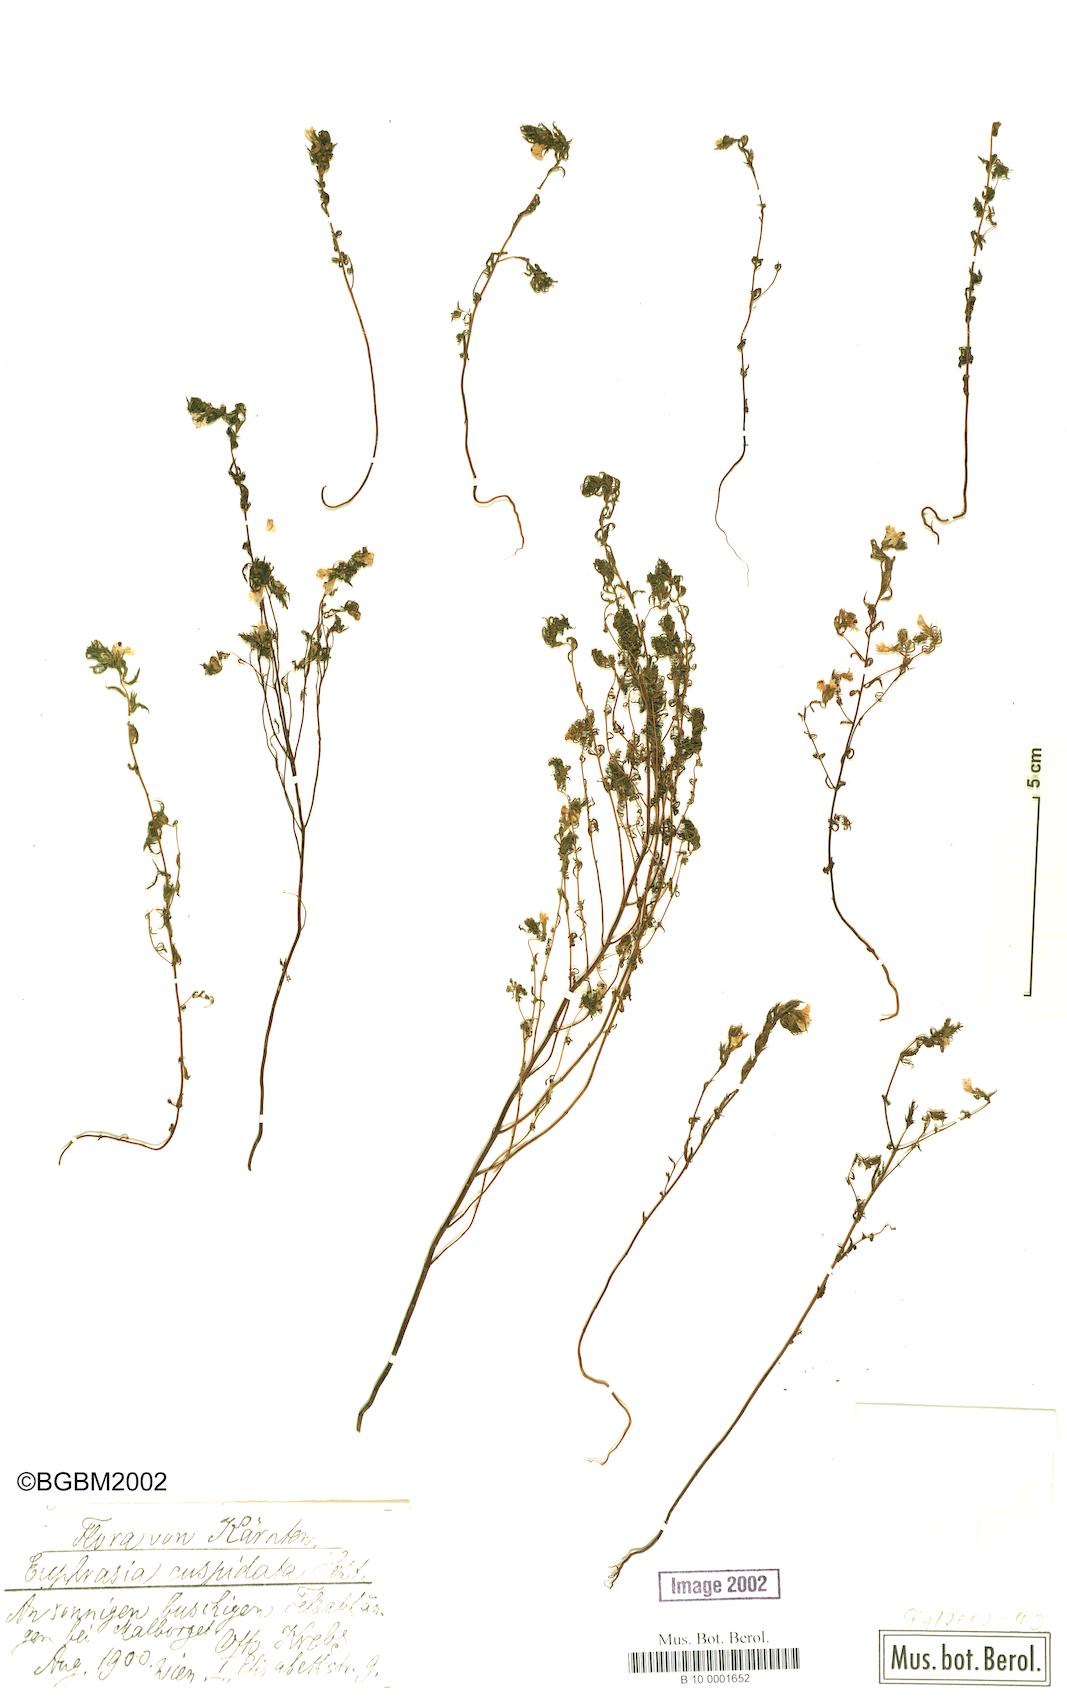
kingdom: Plantae
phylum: Tracheophyta
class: Magnoliopsida
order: Lamiales
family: Orobanchaceae
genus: Euphrasia
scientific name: Euphrasia cuspidata
